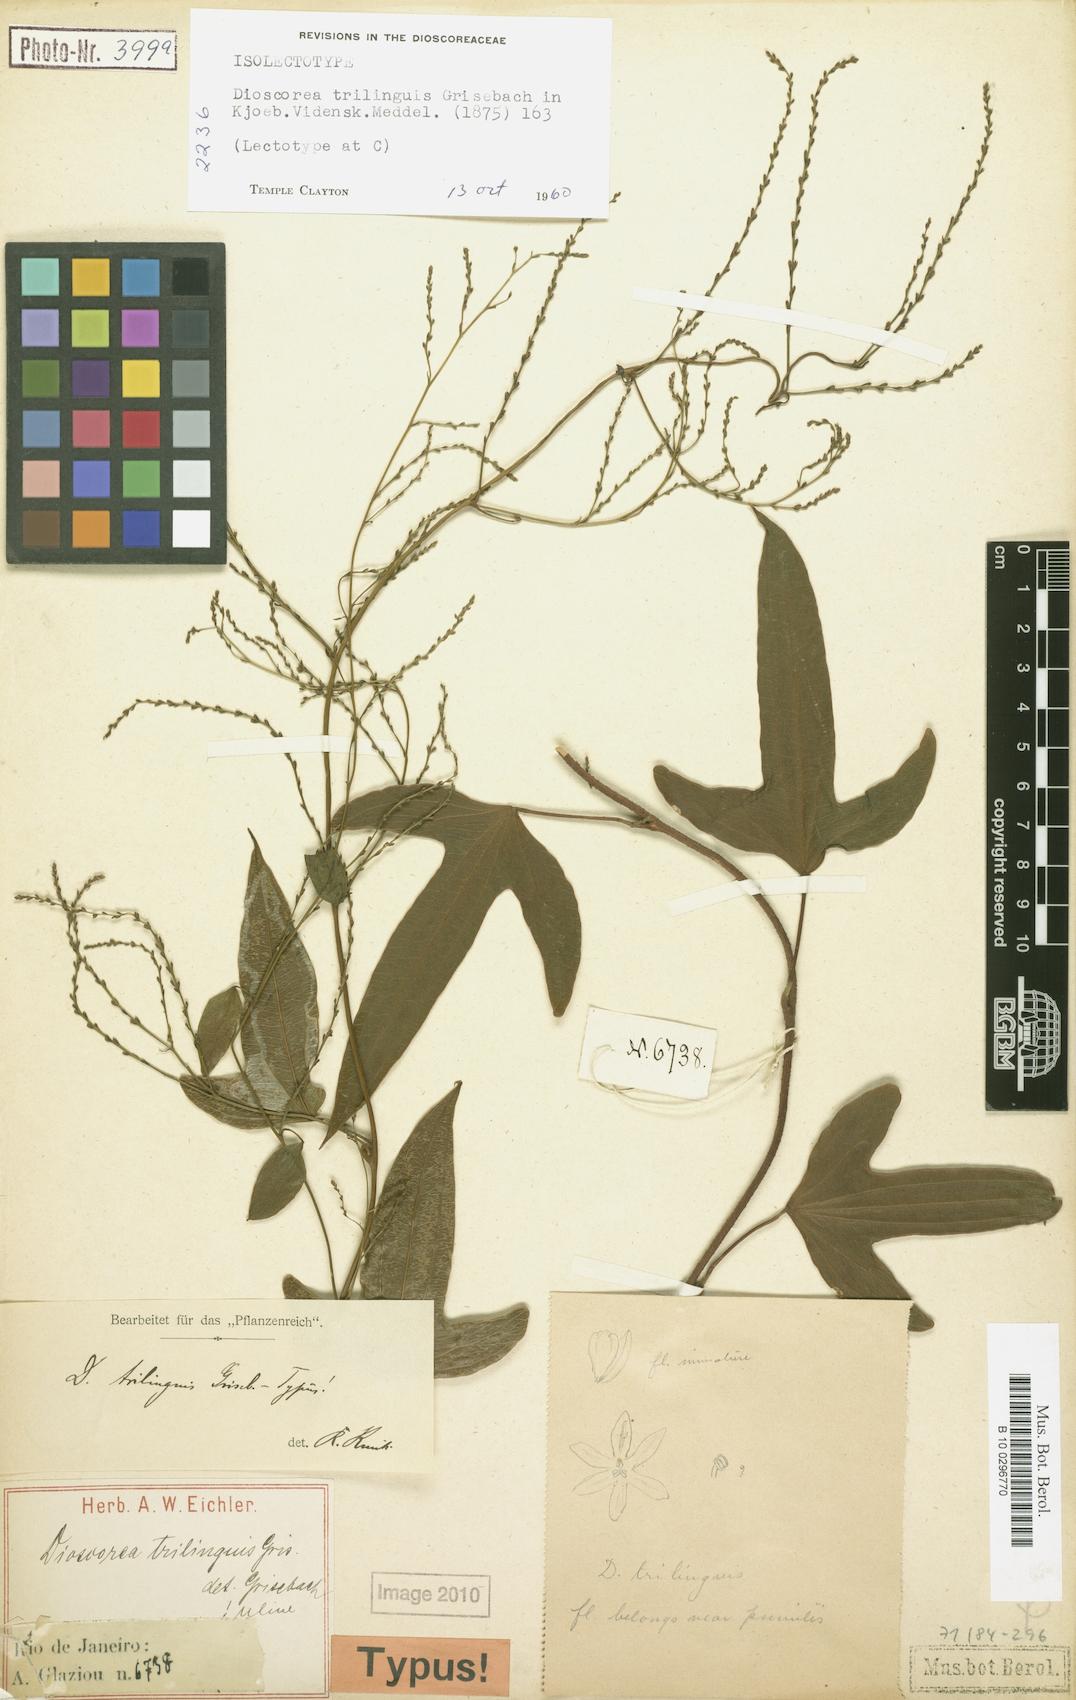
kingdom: Plantae
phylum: Tracheophyta
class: Liliopsida
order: Dioscoreales
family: Dioscoreaceae
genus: Dioscorea
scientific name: Dioscorea trilinguis
